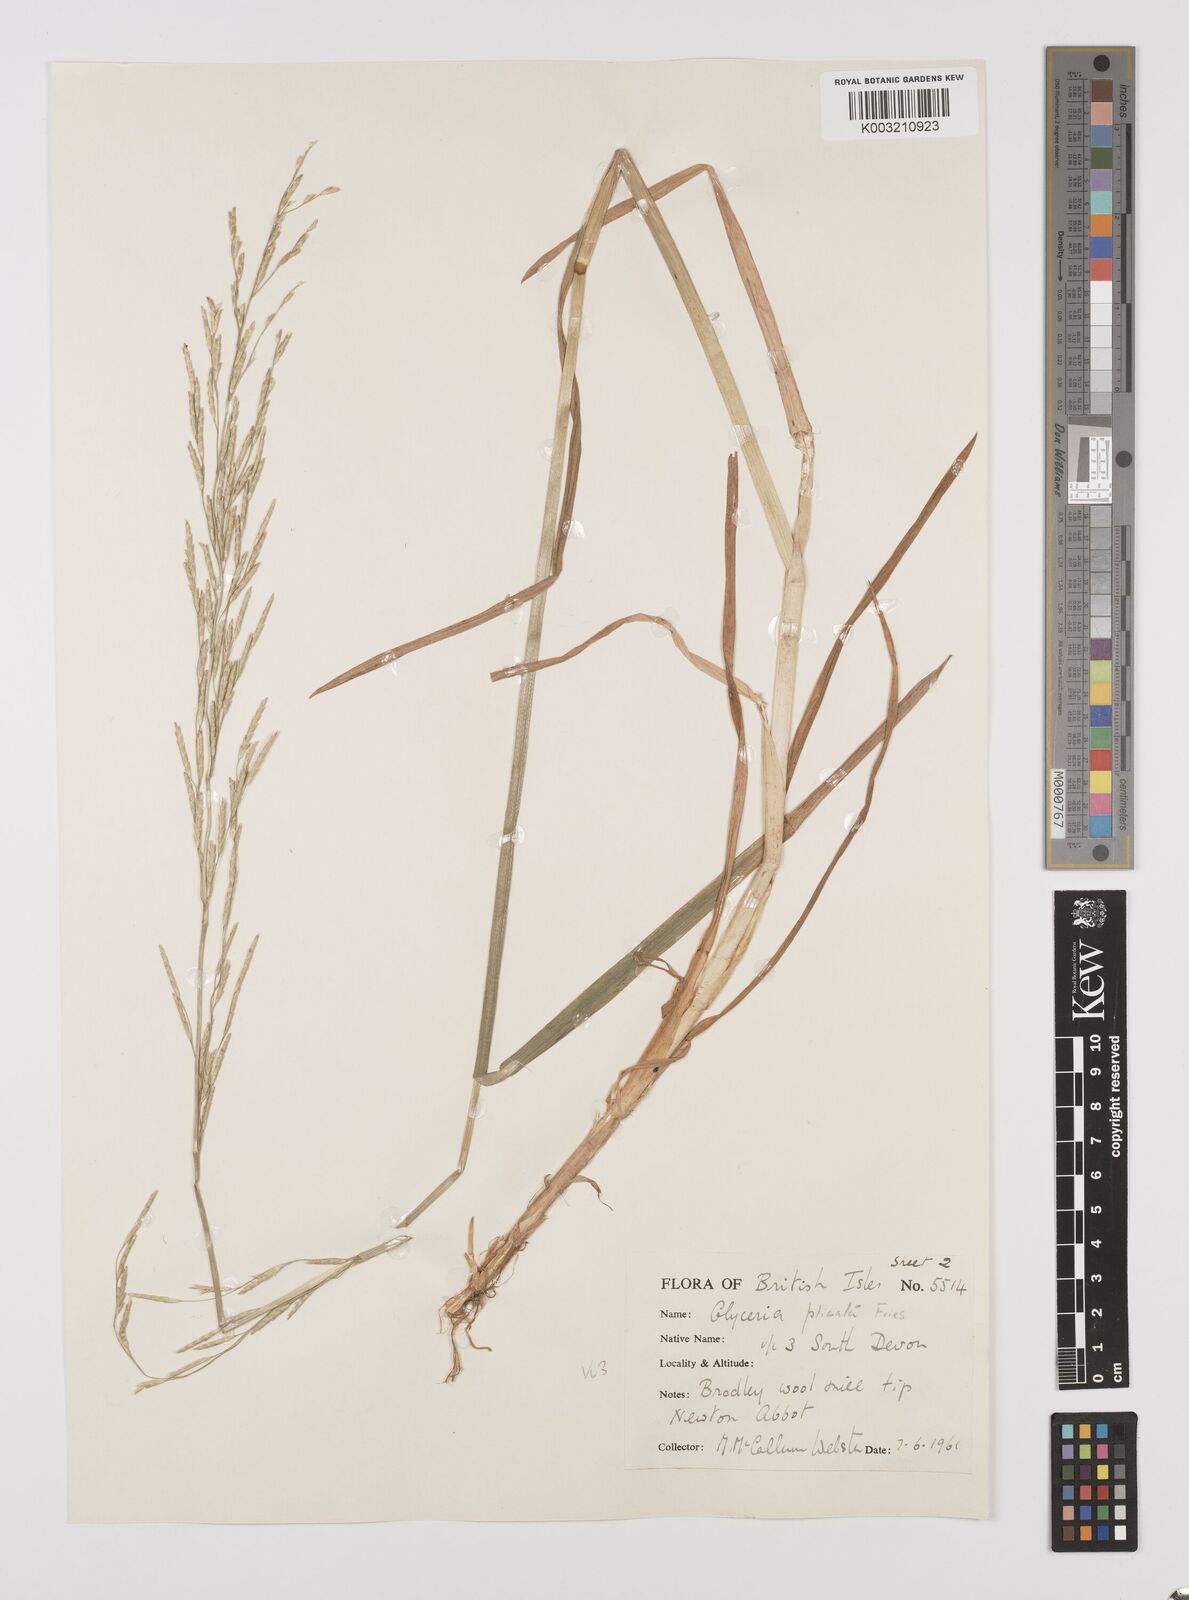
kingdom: Plantae
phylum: Tracheophyta
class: Liliopsida
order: Poales
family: Poaceae
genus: Glyceria
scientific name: Glyceria notata
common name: Plicate sweet-grass
